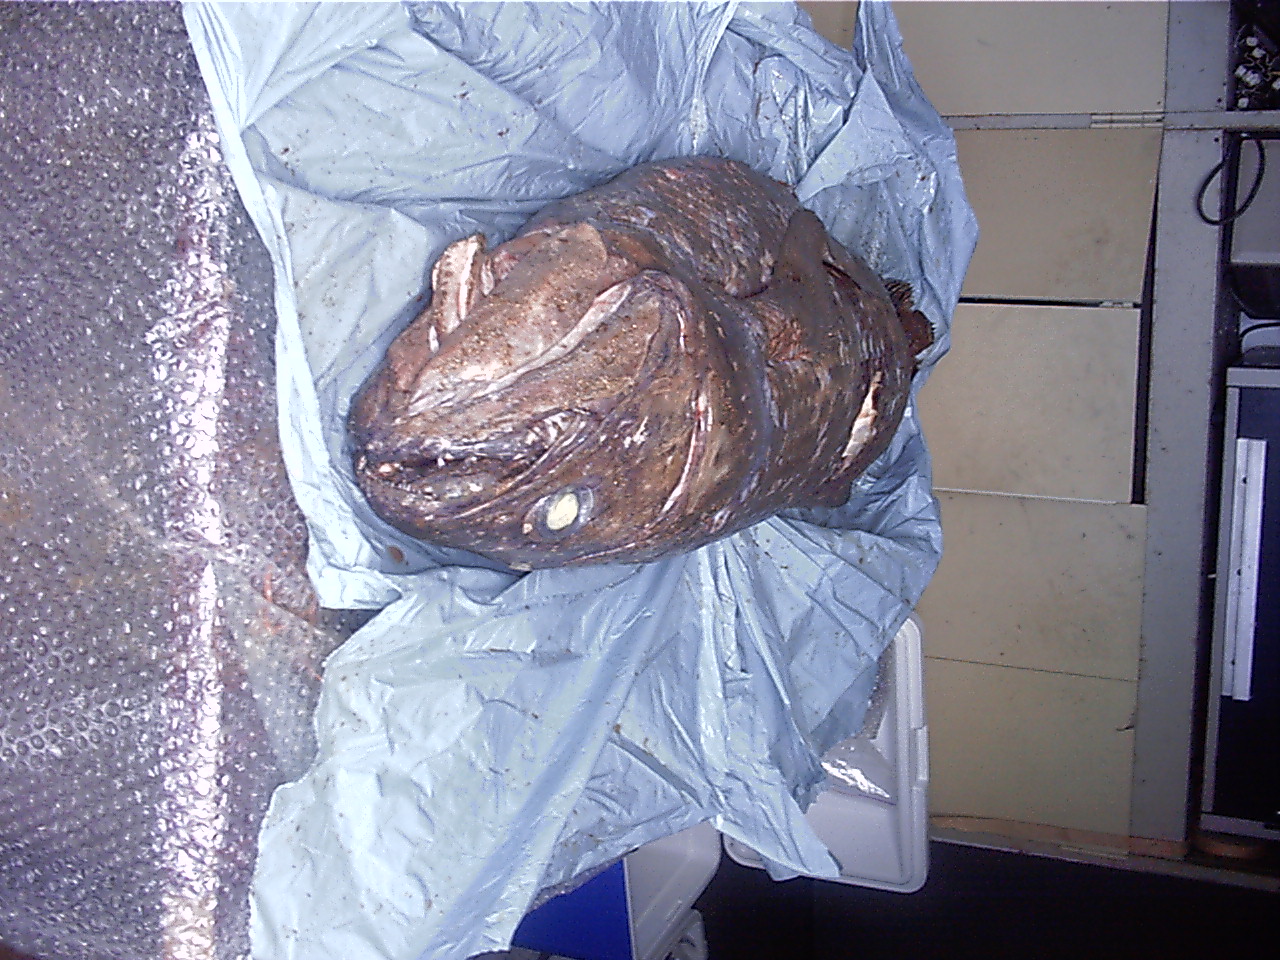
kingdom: Animalia
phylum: Chordata
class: Coelacanthi
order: Coelacanthiformes
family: Latimeriidae
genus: Latimeria
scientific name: Latimeria chalumnae
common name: Coelacanth
